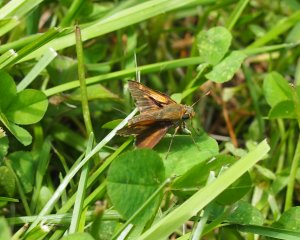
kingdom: Animalia
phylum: Arthropoda
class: Insecta
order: Lepidoptera
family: Hesperiidae
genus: Polites
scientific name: Polites coras
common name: Peck's Skipper
